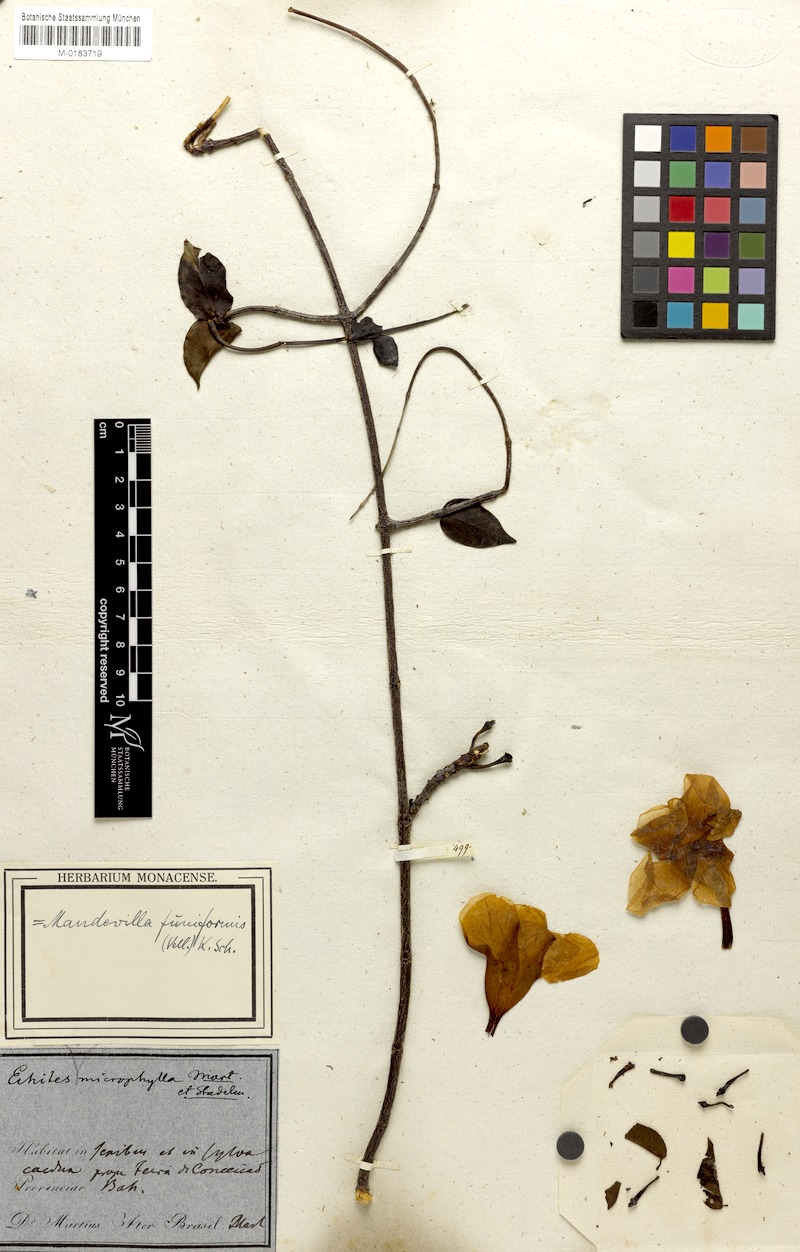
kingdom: Plantae
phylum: Tracheophyta
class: Magnoliopsida
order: Gentianales
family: Apocynaceae
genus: Mandevilla
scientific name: Mandevilla funiformis
